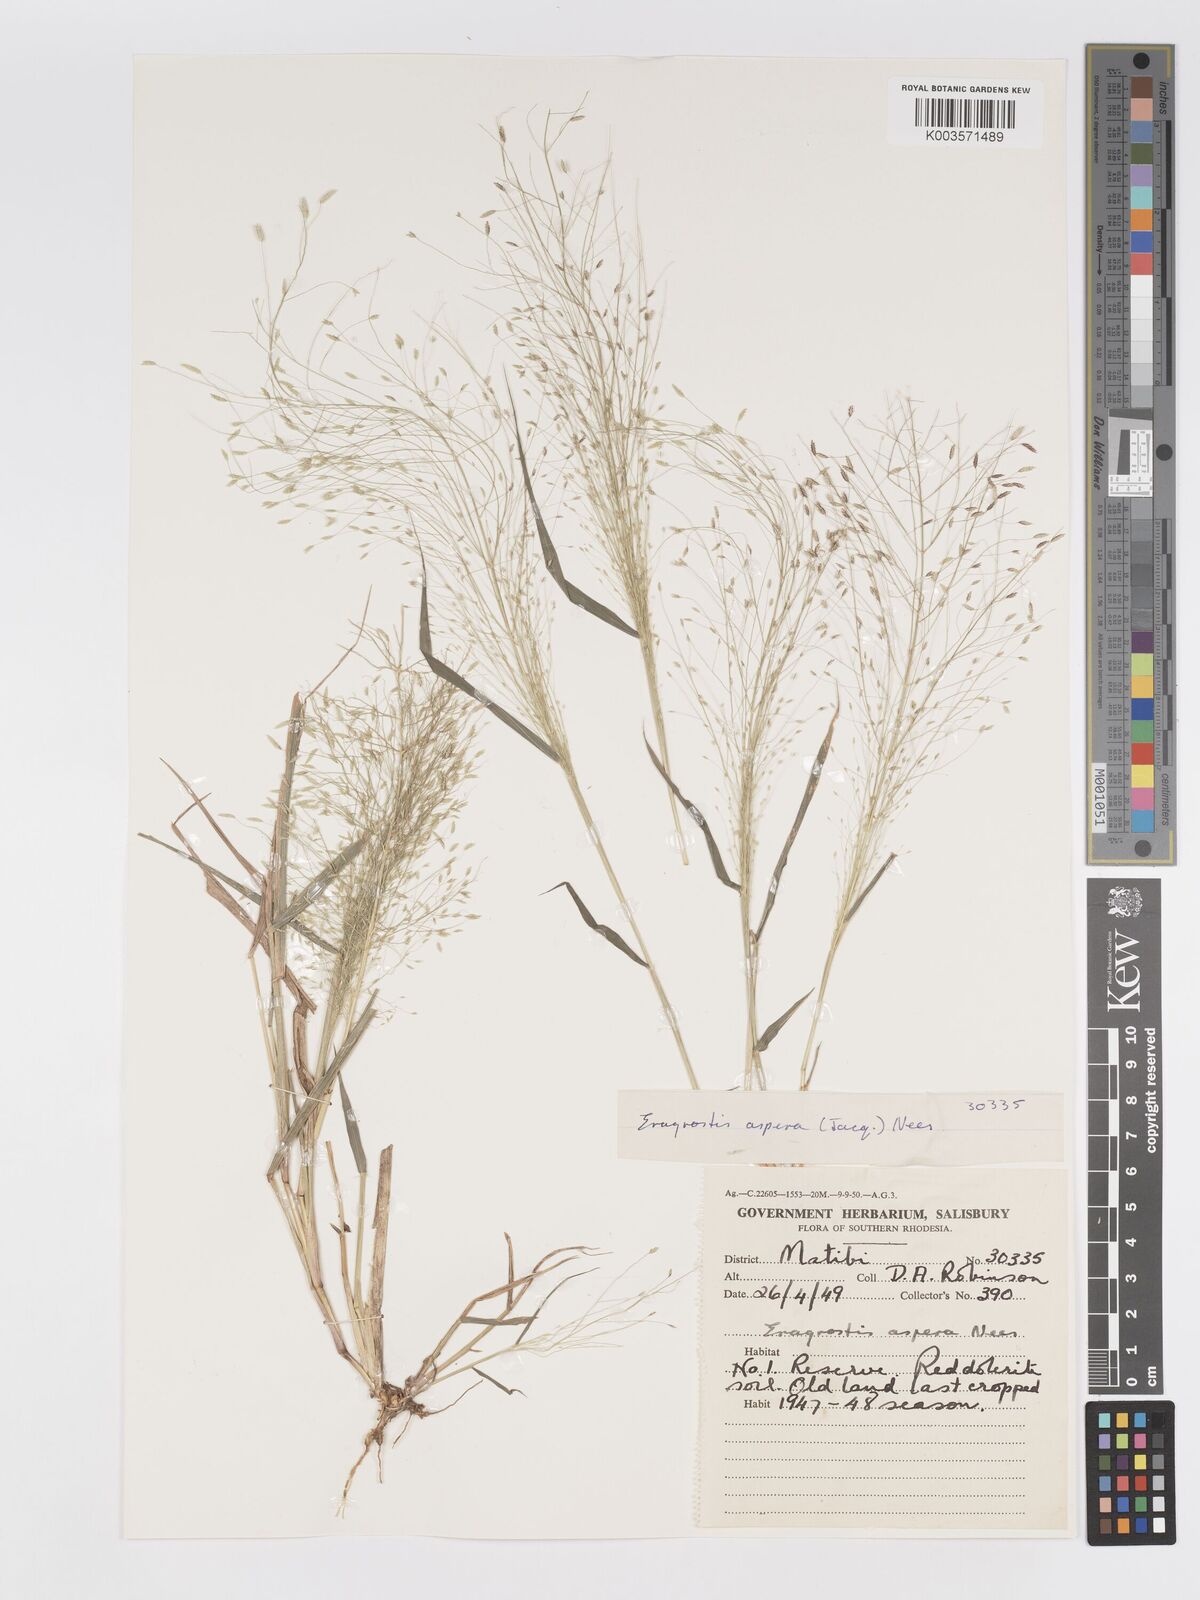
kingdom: Plantae
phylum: Tracheophyta
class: Liliopsida
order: Poales
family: Poaceae
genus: Eragrostis
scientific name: Eragrostis aspera
